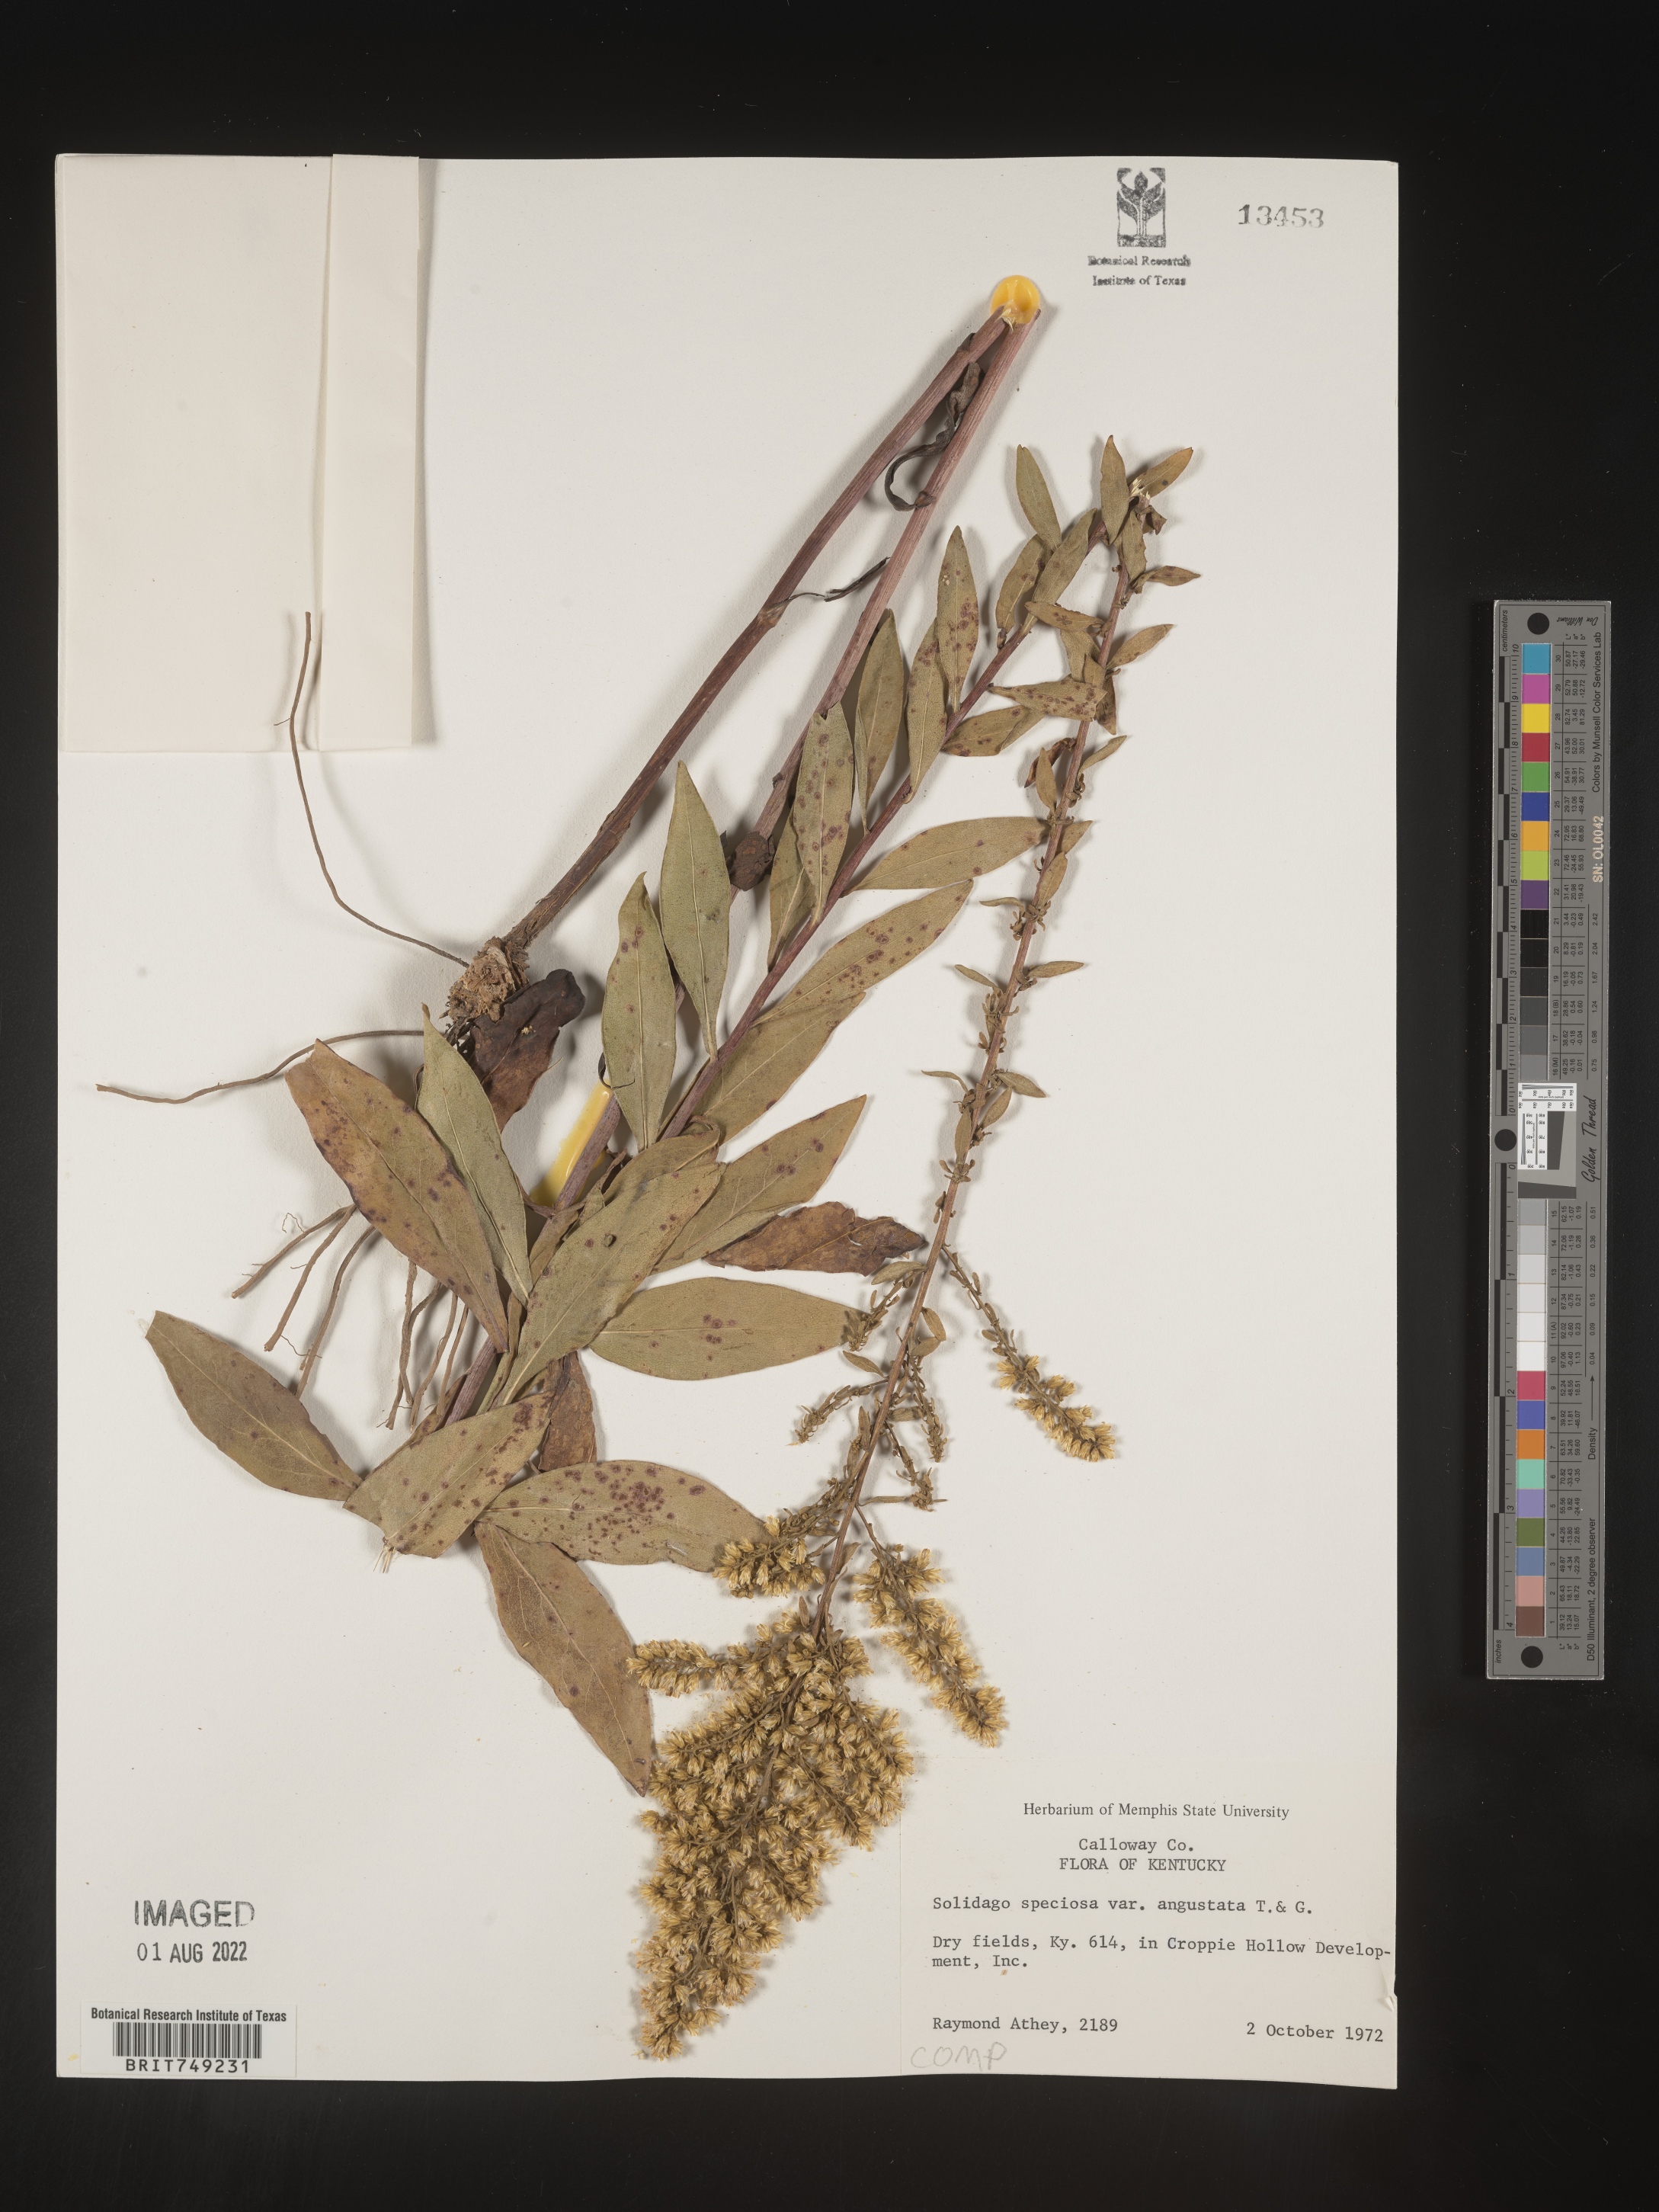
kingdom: Plantae
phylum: Tracheophyta
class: Magnoliopsida
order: Asterales
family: Asteraceae
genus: Solidago
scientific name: Solidago speciosa
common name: Showy goldenrod
